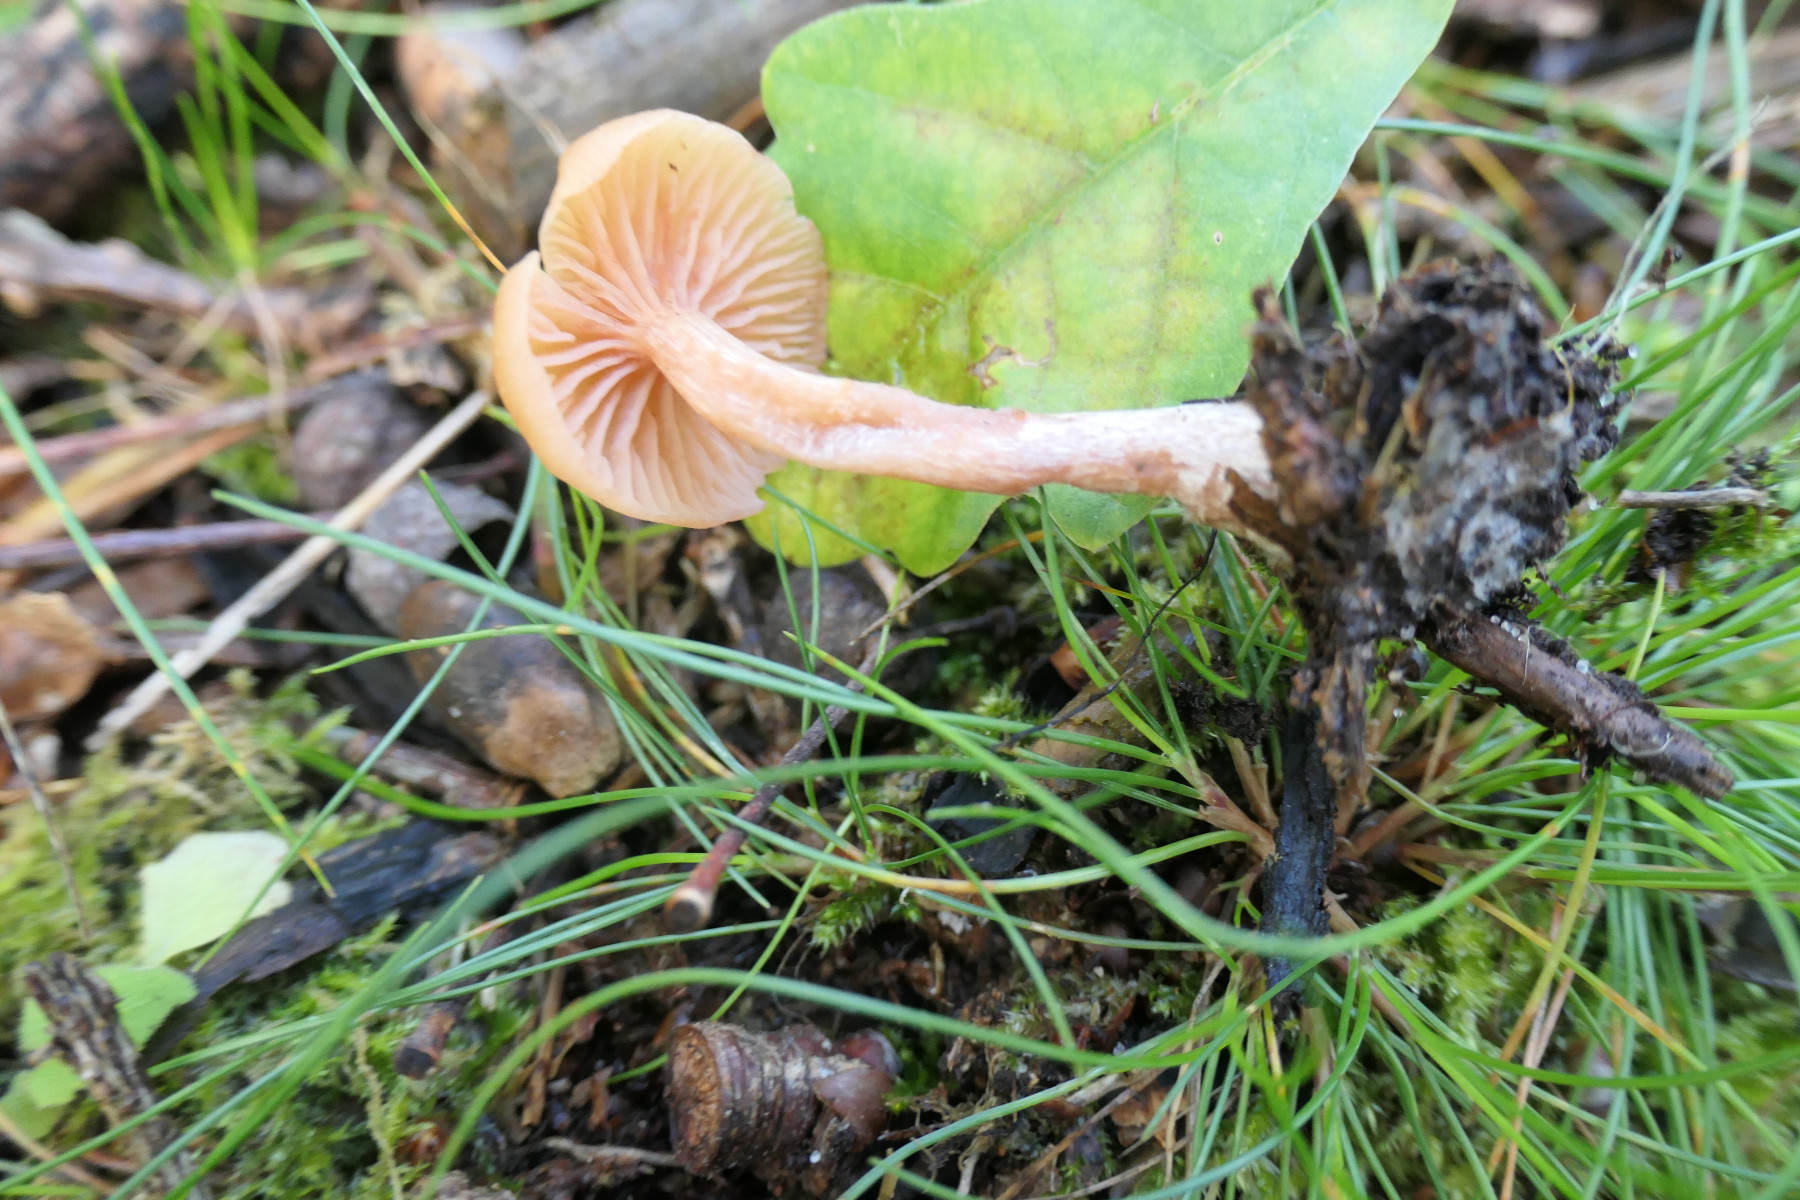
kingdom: Fungi
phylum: Basidiomycota
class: Agaricomycetes
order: Agaricales
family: Hydnangiaceae
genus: Laccaria
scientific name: Laccaria laccata
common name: rød ametysthat
